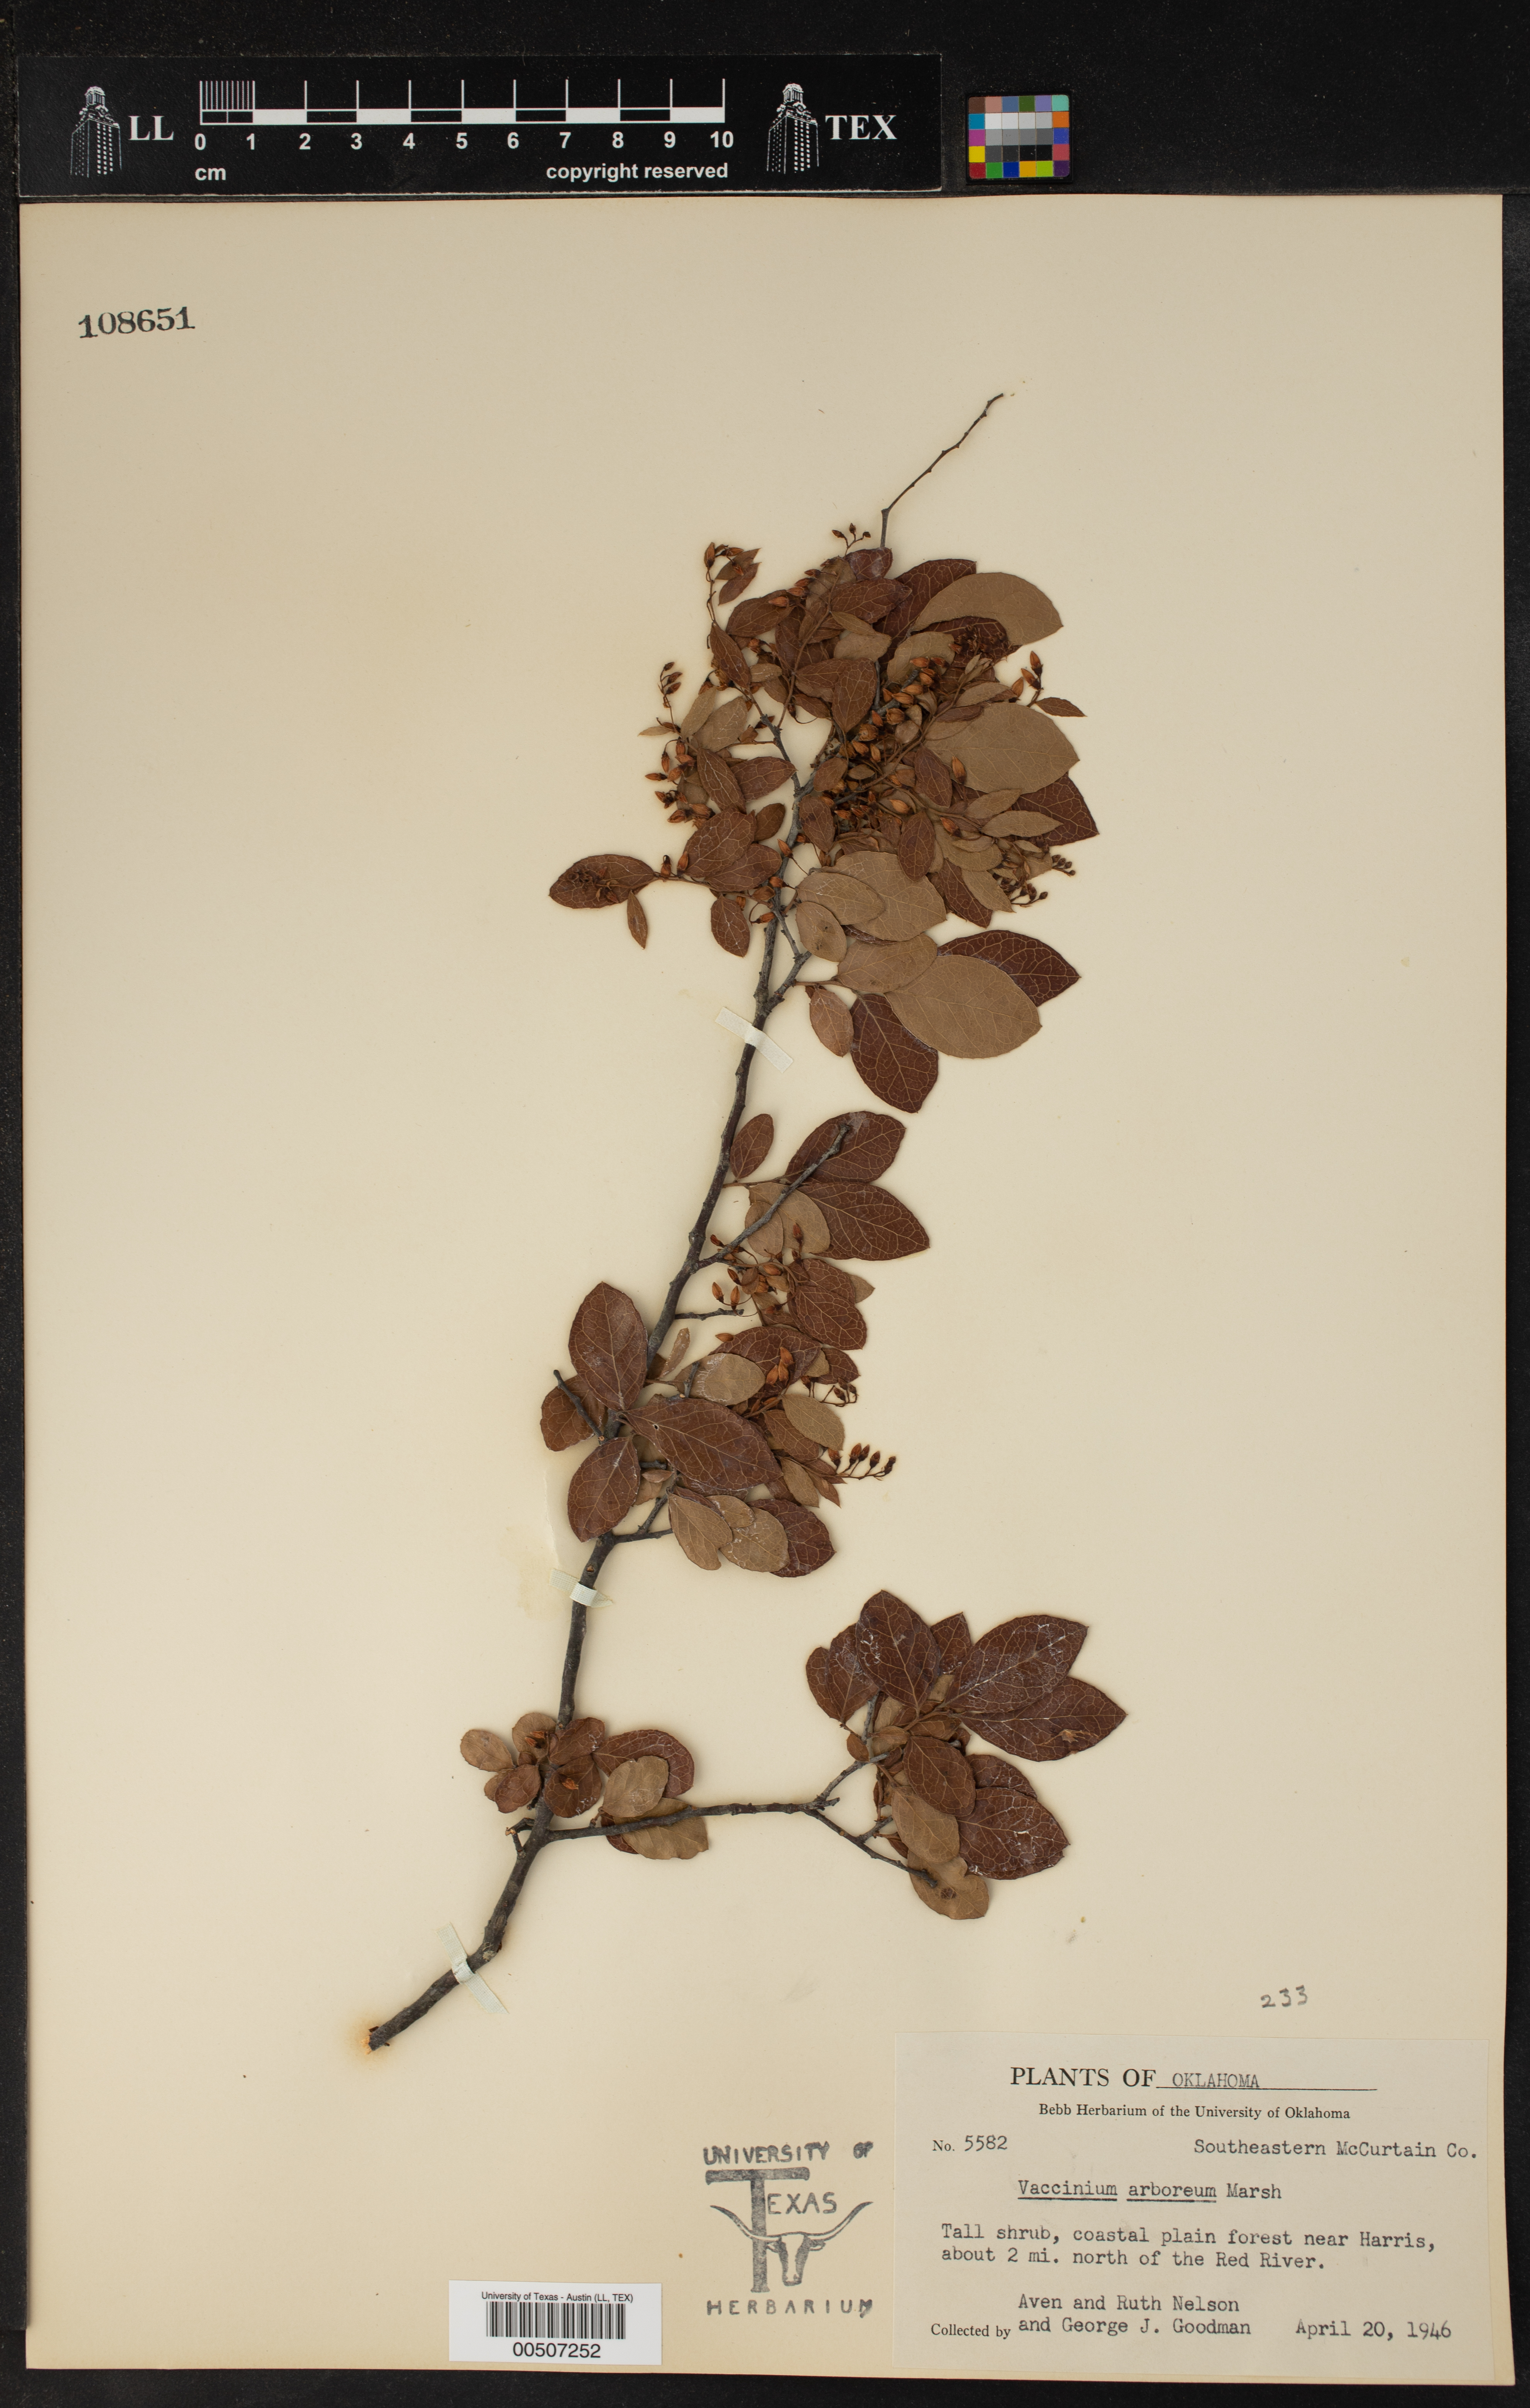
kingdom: Plantae
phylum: Tracheophyta
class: Magnoliopsida
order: Ericales
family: Ericaceae
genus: Vaccinium
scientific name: Vaccinium arboreum
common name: Farkleberry
